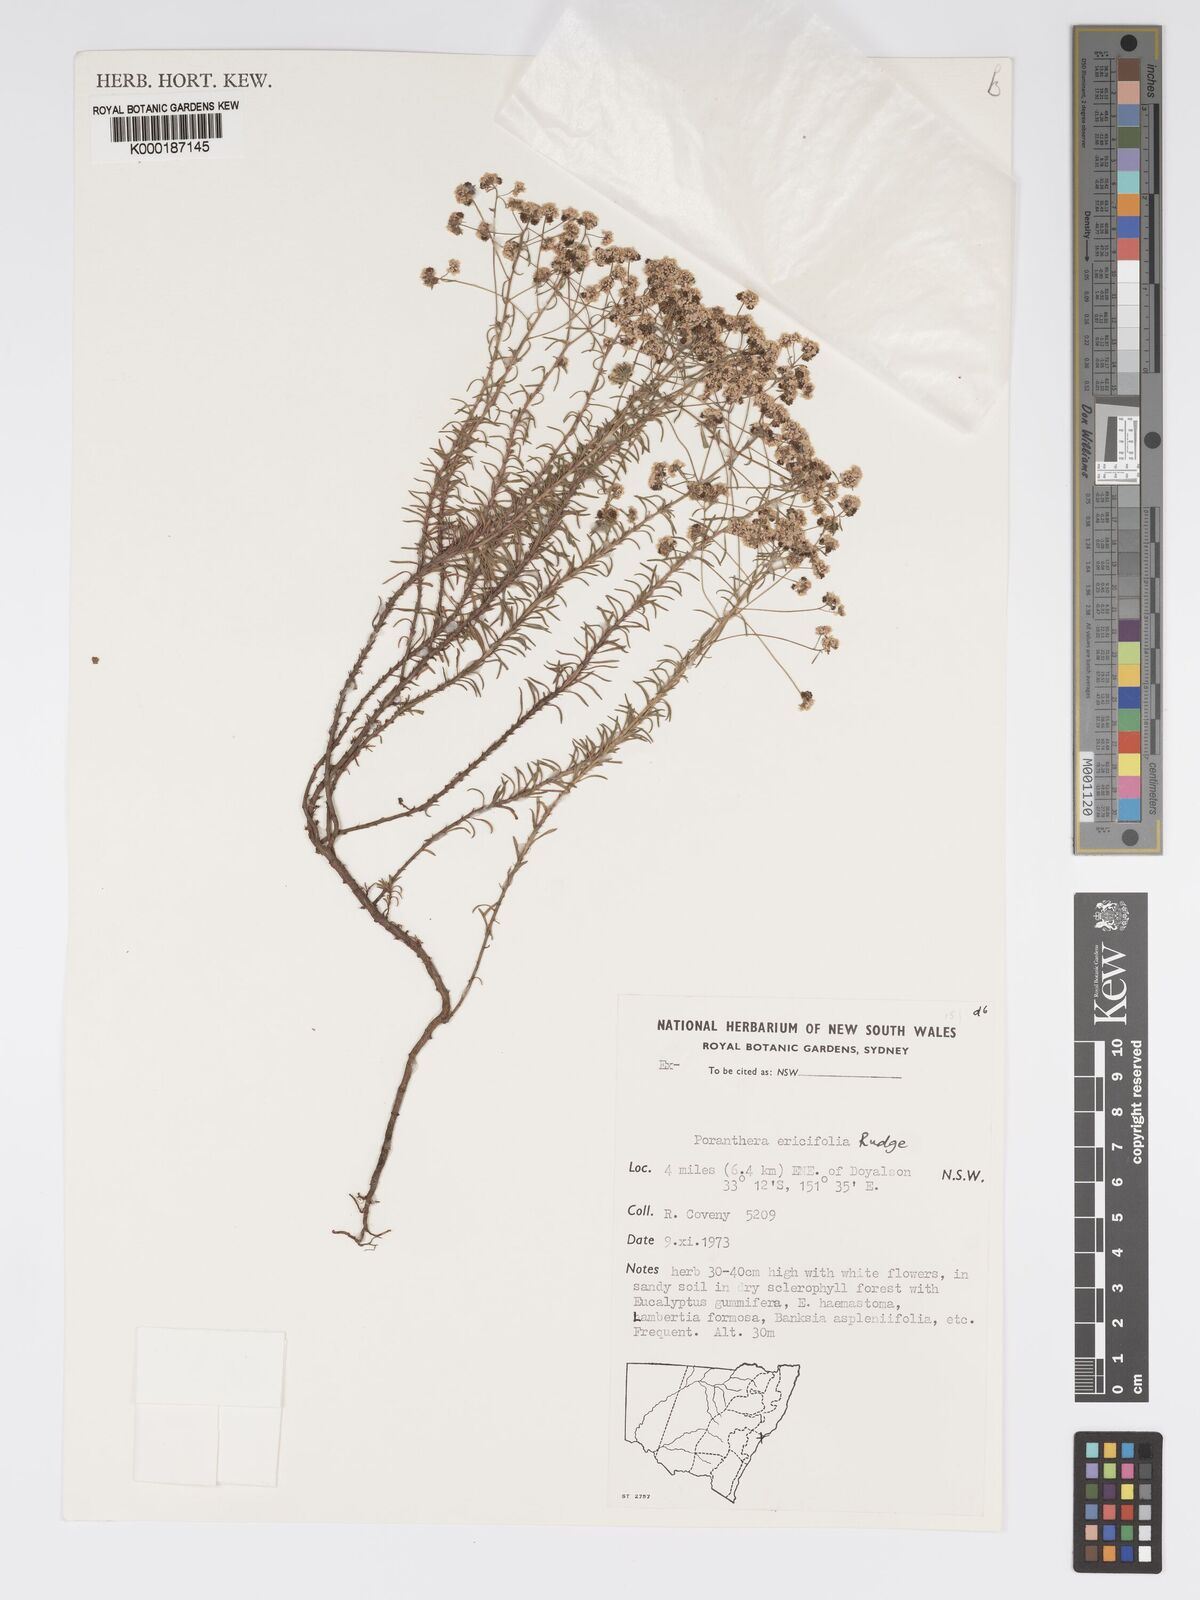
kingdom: Plantae
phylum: Tracheophyta
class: Magnoliopsida
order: Malpighiales
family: Phyllanthaceae
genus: Poranthera
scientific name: Poranthera ericifolia
